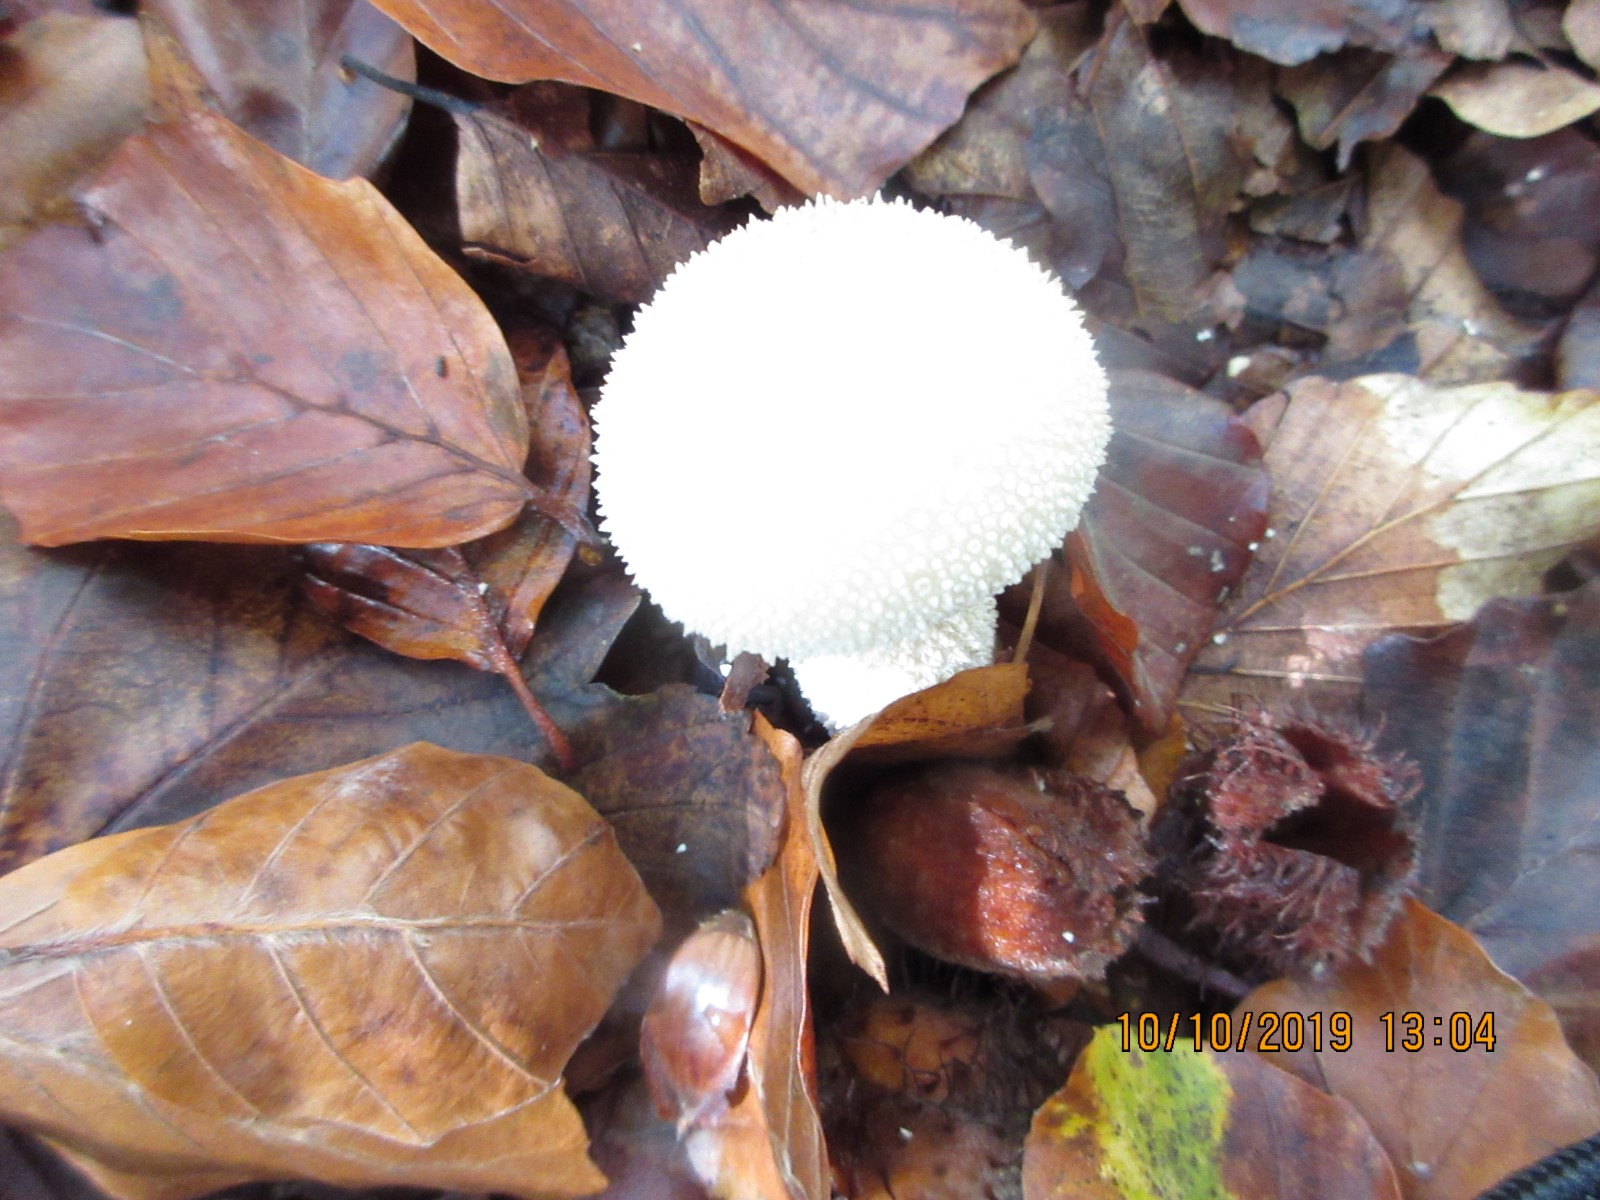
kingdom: Fungi
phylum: Basidiomycota
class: Agaricomycetes
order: Agaricales
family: Lycoperdaceae
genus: Lycoperdon
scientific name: Lycoperdon perlatum
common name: krystal-støvbold
